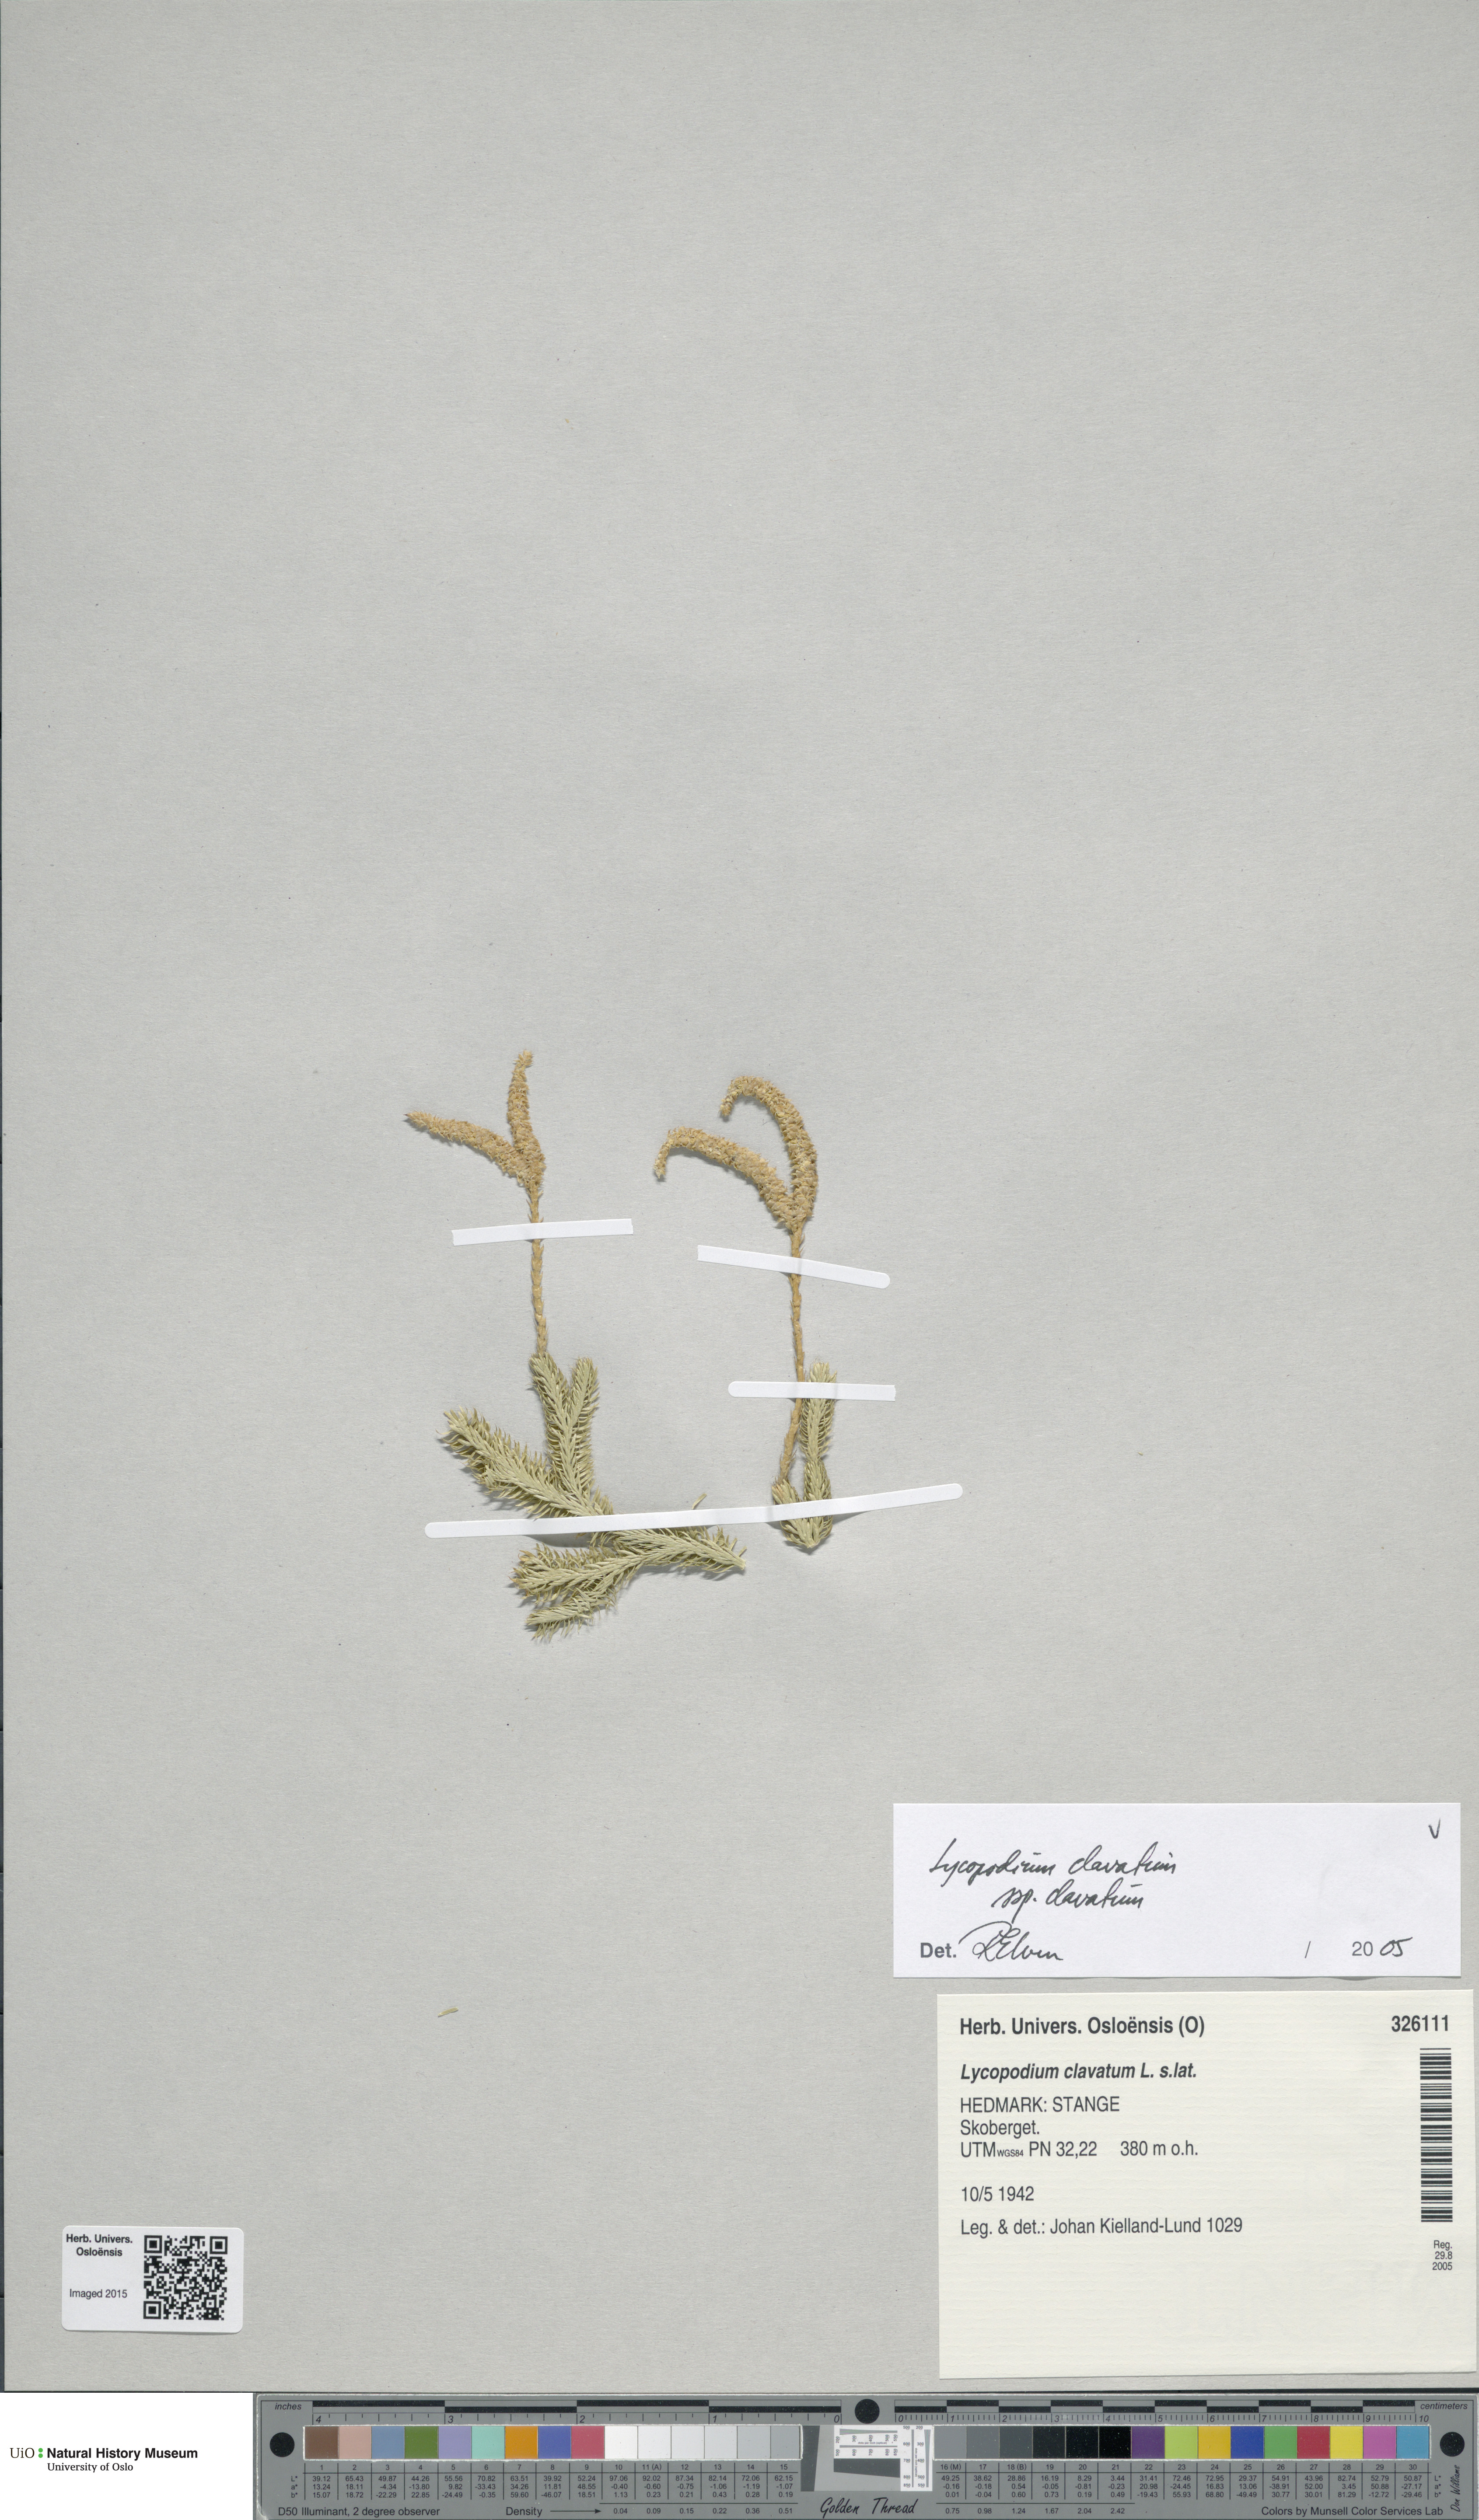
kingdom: Plantae
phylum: Tracheophyta
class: Lycopodiopsida
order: Lycopodiales
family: Lycopodiaceae
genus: Lycopodium
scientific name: Lycopodium clavatum
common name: Stag's-horn clubmoss
